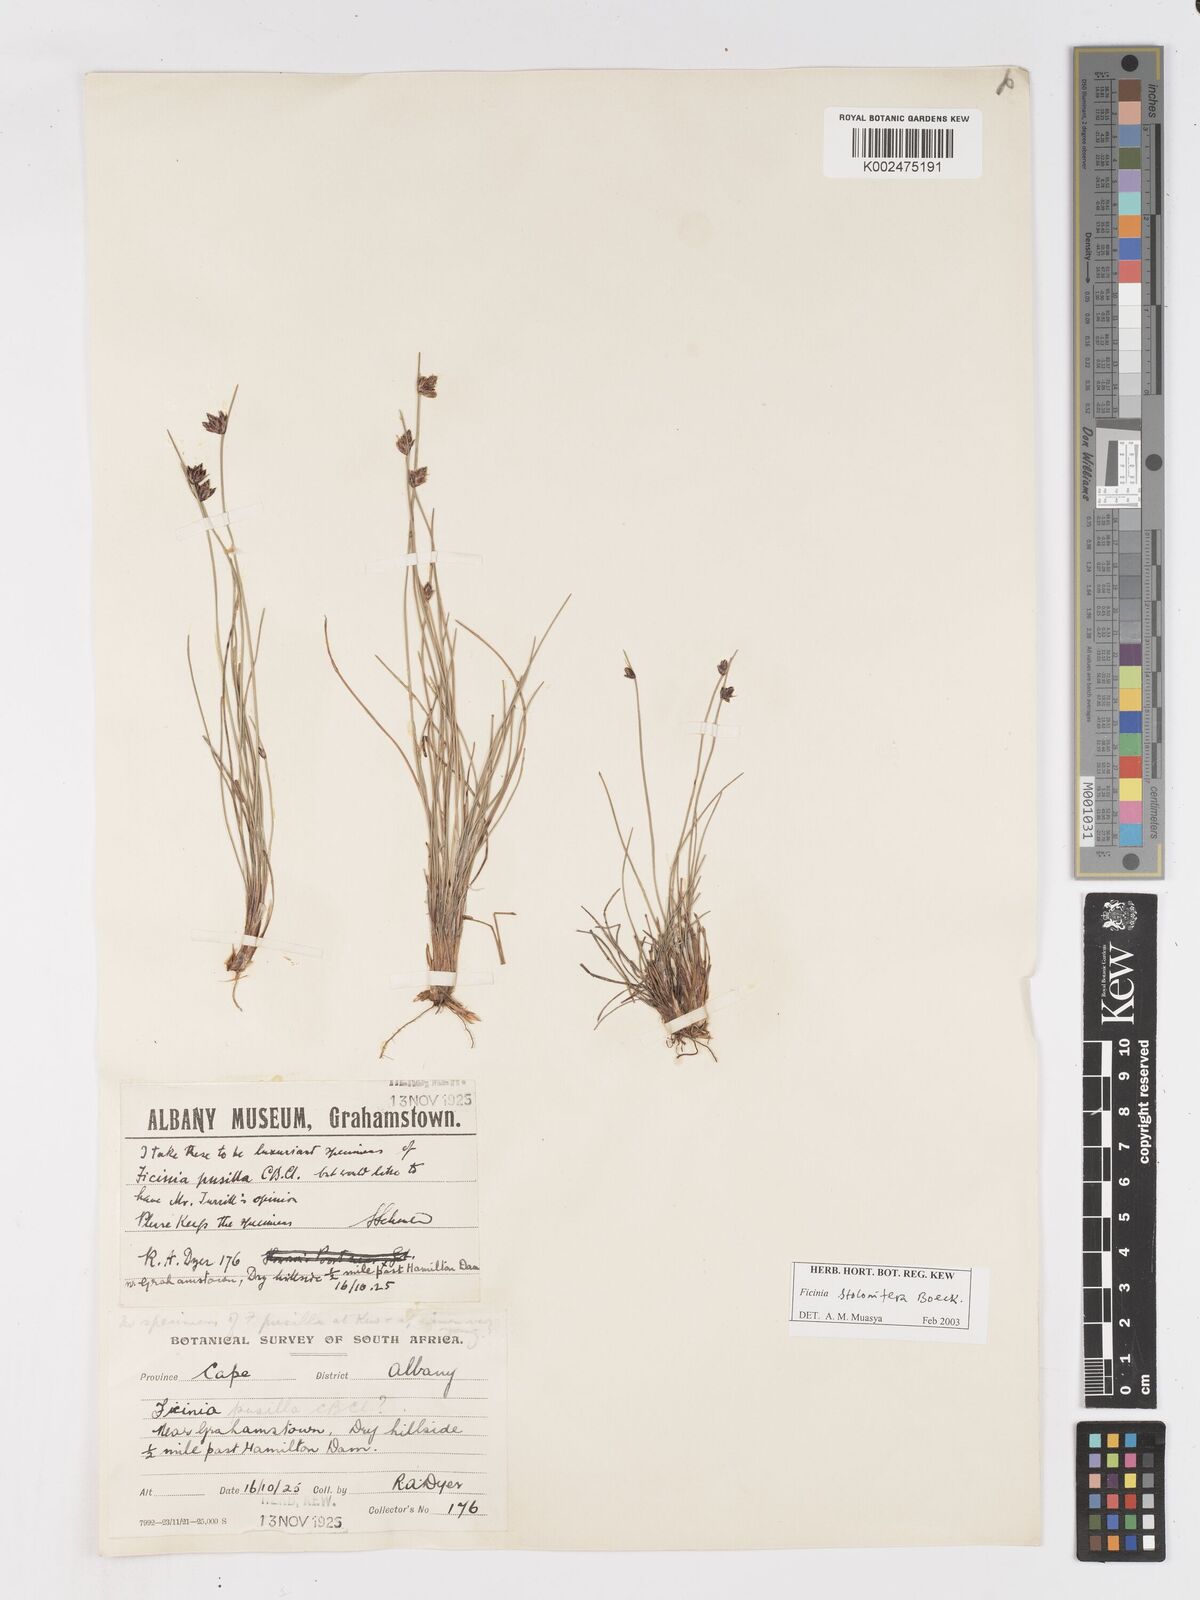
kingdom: Plantae
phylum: Tracheophyta
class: Liliopsida
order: Poales
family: Cyperaceae
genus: Ficinia
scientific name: Ficinia stolonifera
